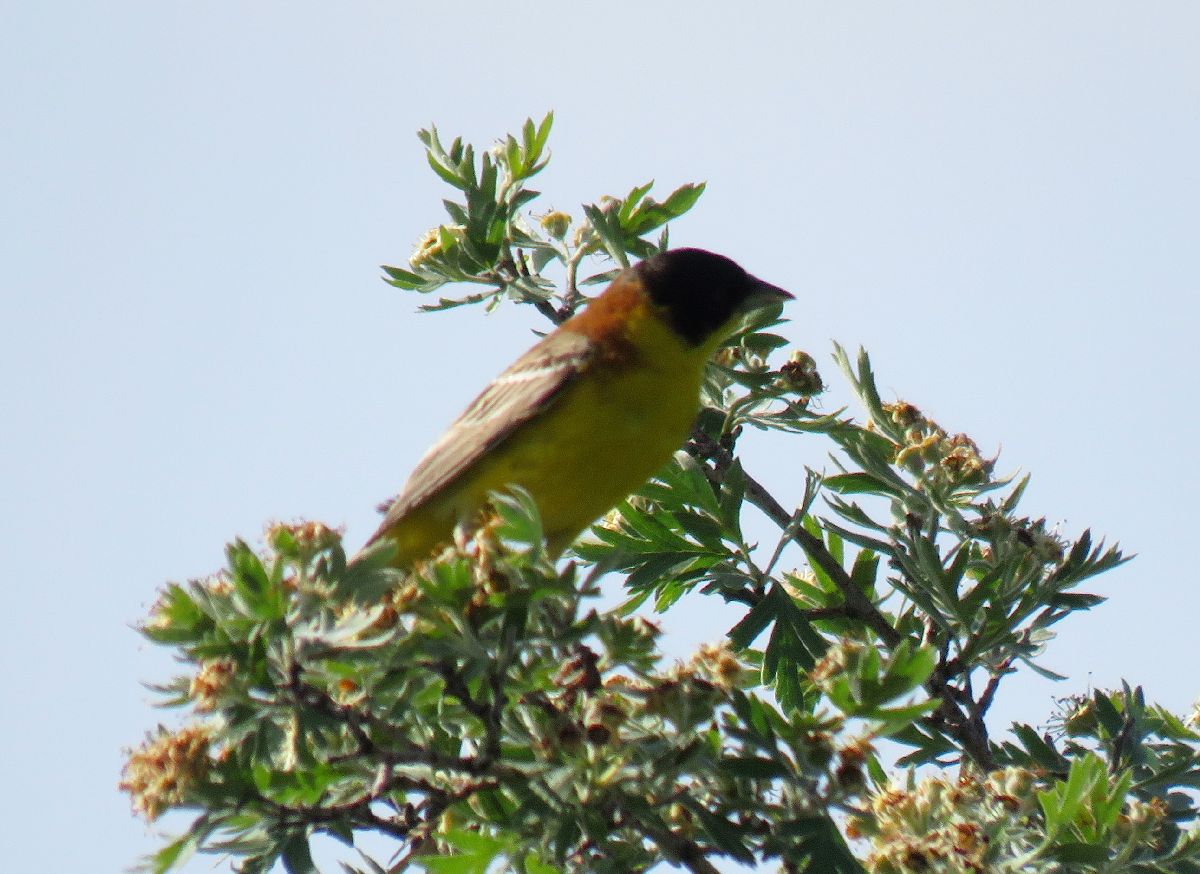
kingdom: Animalia
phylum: Chordata
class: Aves
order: Passeriformes
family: Emberizidae
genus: Emberiza
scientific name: Emberiza melanocephala
